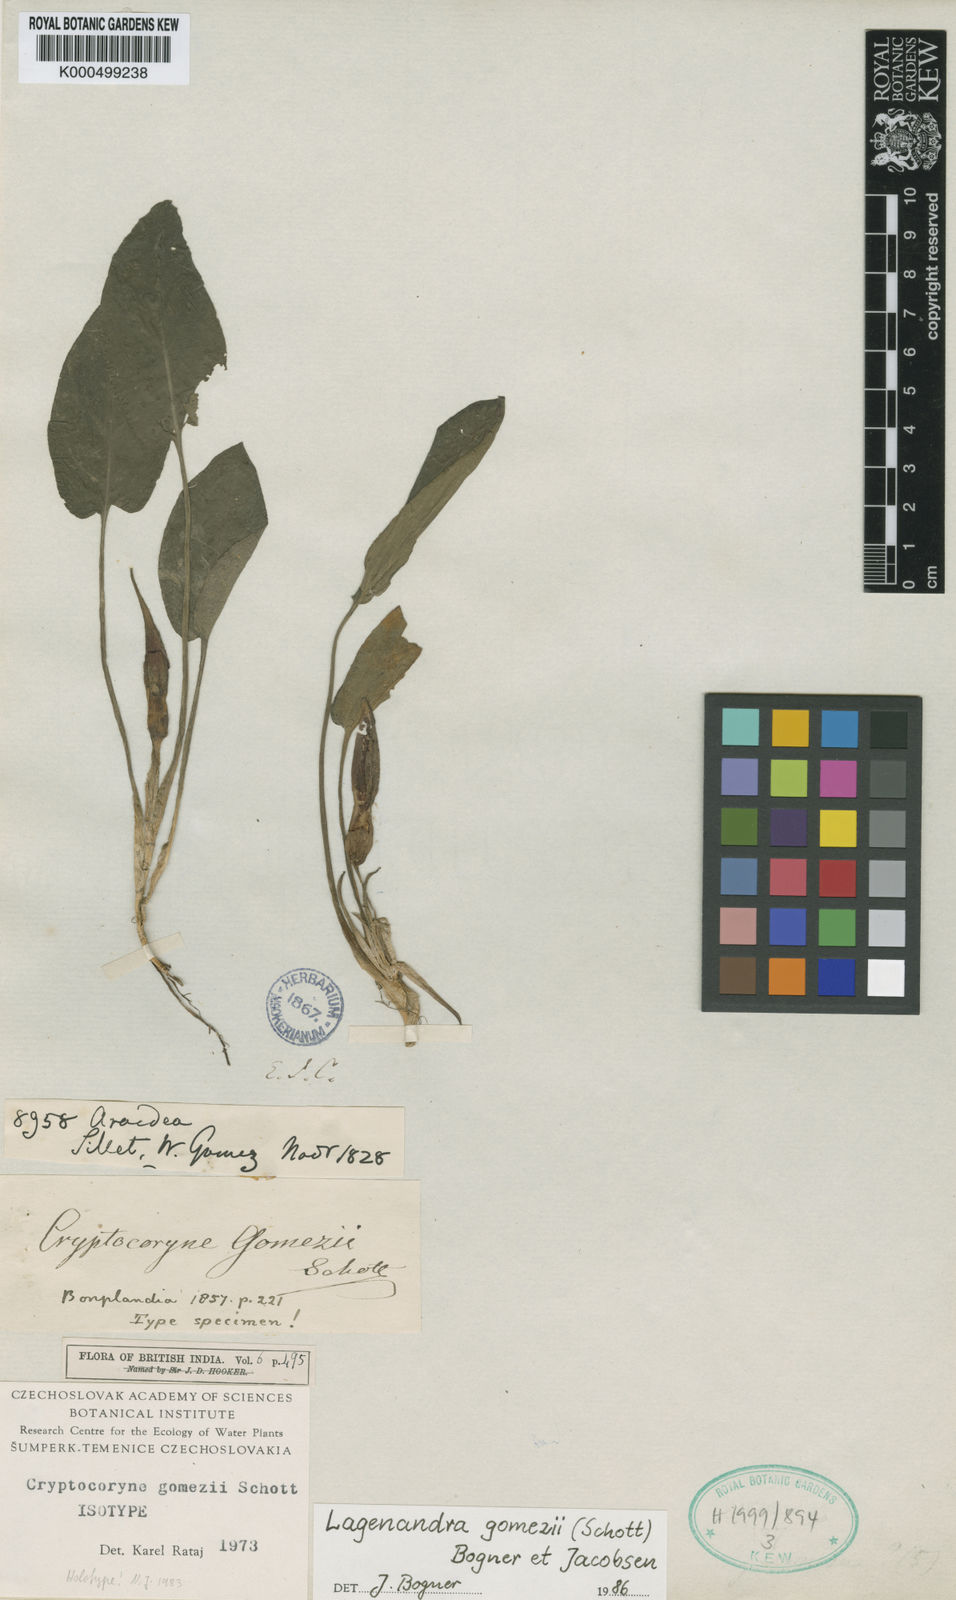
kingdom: Plantae
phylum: Tracheophyta
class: Liliopsida
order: Alismatales
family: Araceae
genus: Lagenandra
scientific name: Lagenandra gomezii
